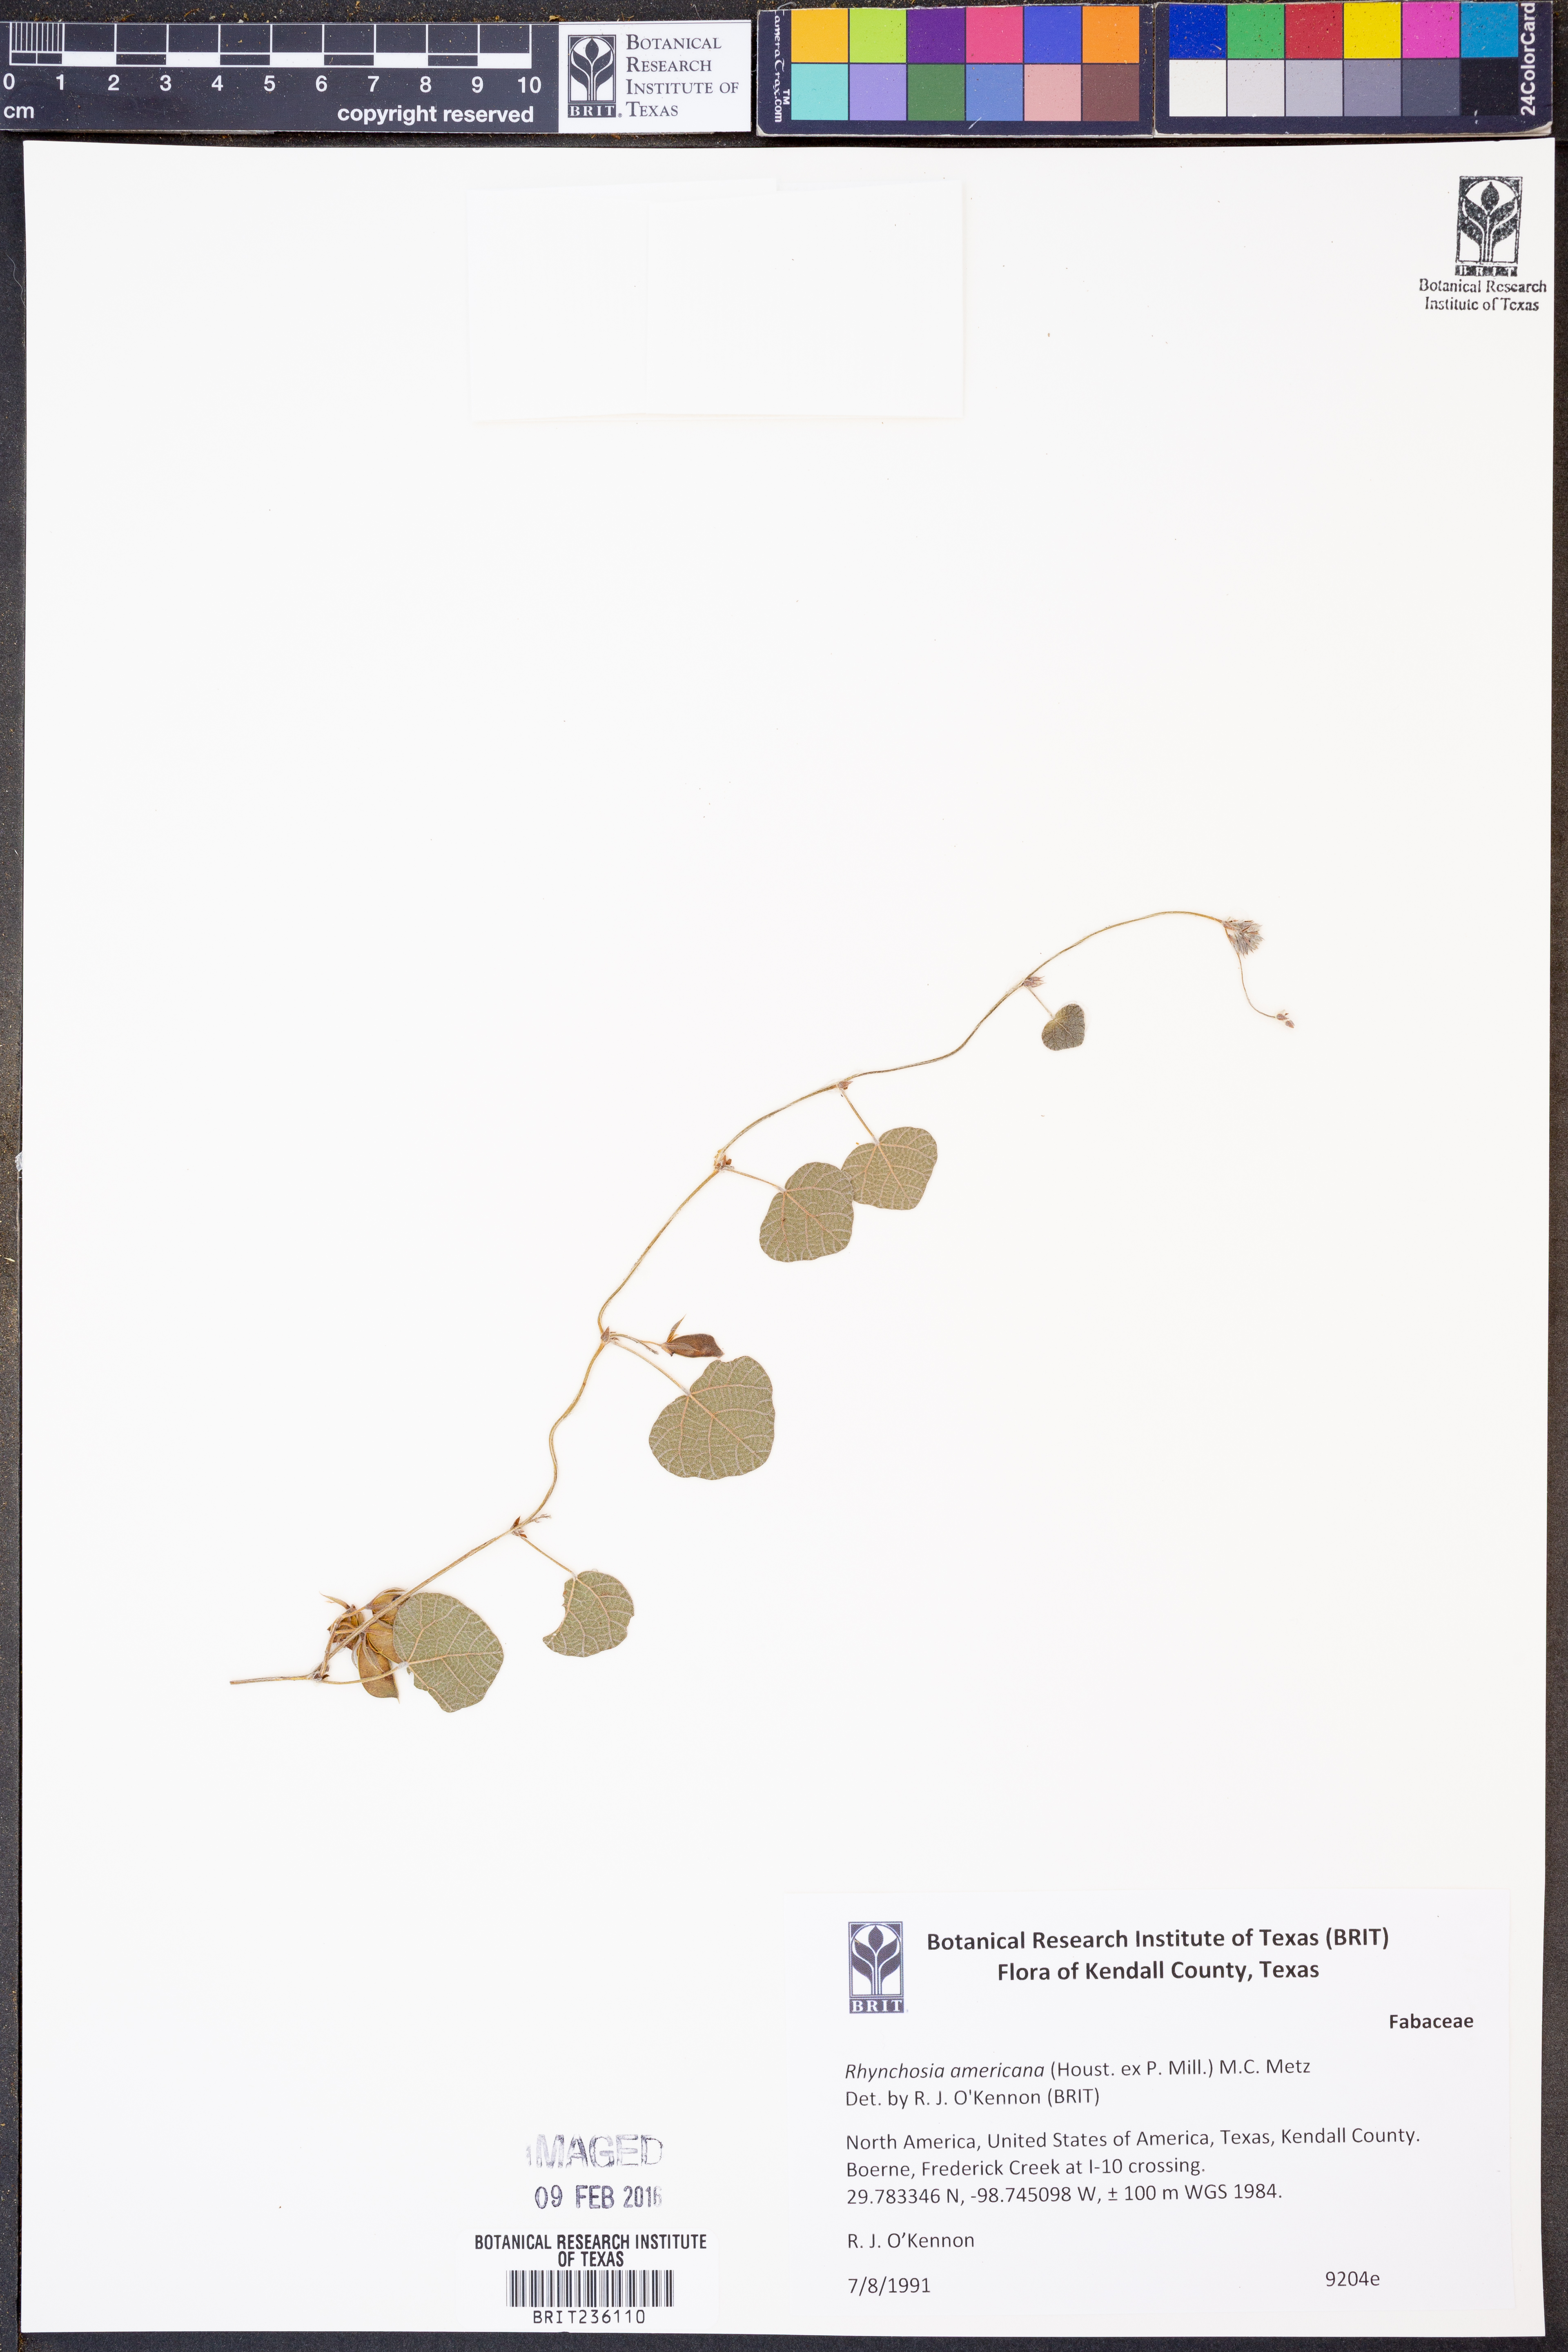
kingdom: Plantae
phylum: Tracheophyta
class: Magnoliopsida
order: Fabales
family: Fabaceae
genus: Rhynchosia
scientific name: Rhynchosia americana
